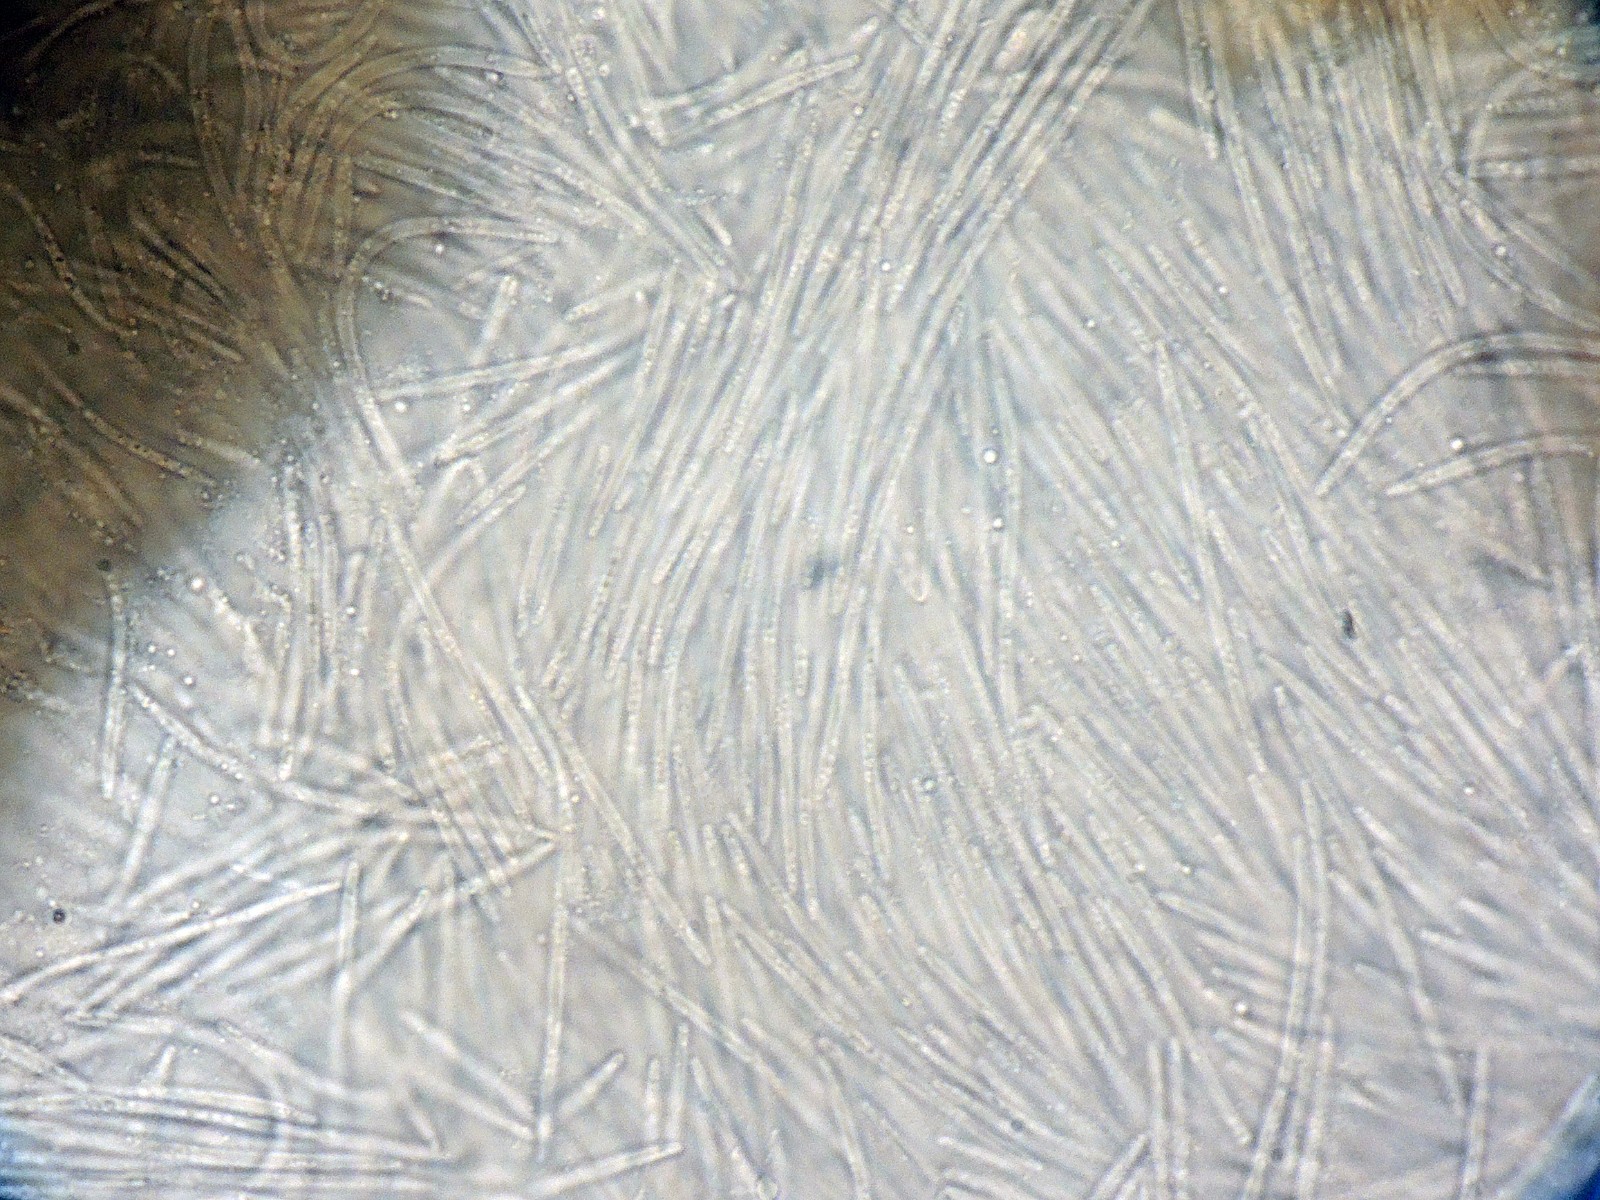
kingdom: Fungi
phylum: Ascomycota
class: Dothideomycetes
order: Mycosphaerellales
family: Mycosphaerellaceae
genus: Sphaerulina
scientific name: Sphaerulina westendorpii
